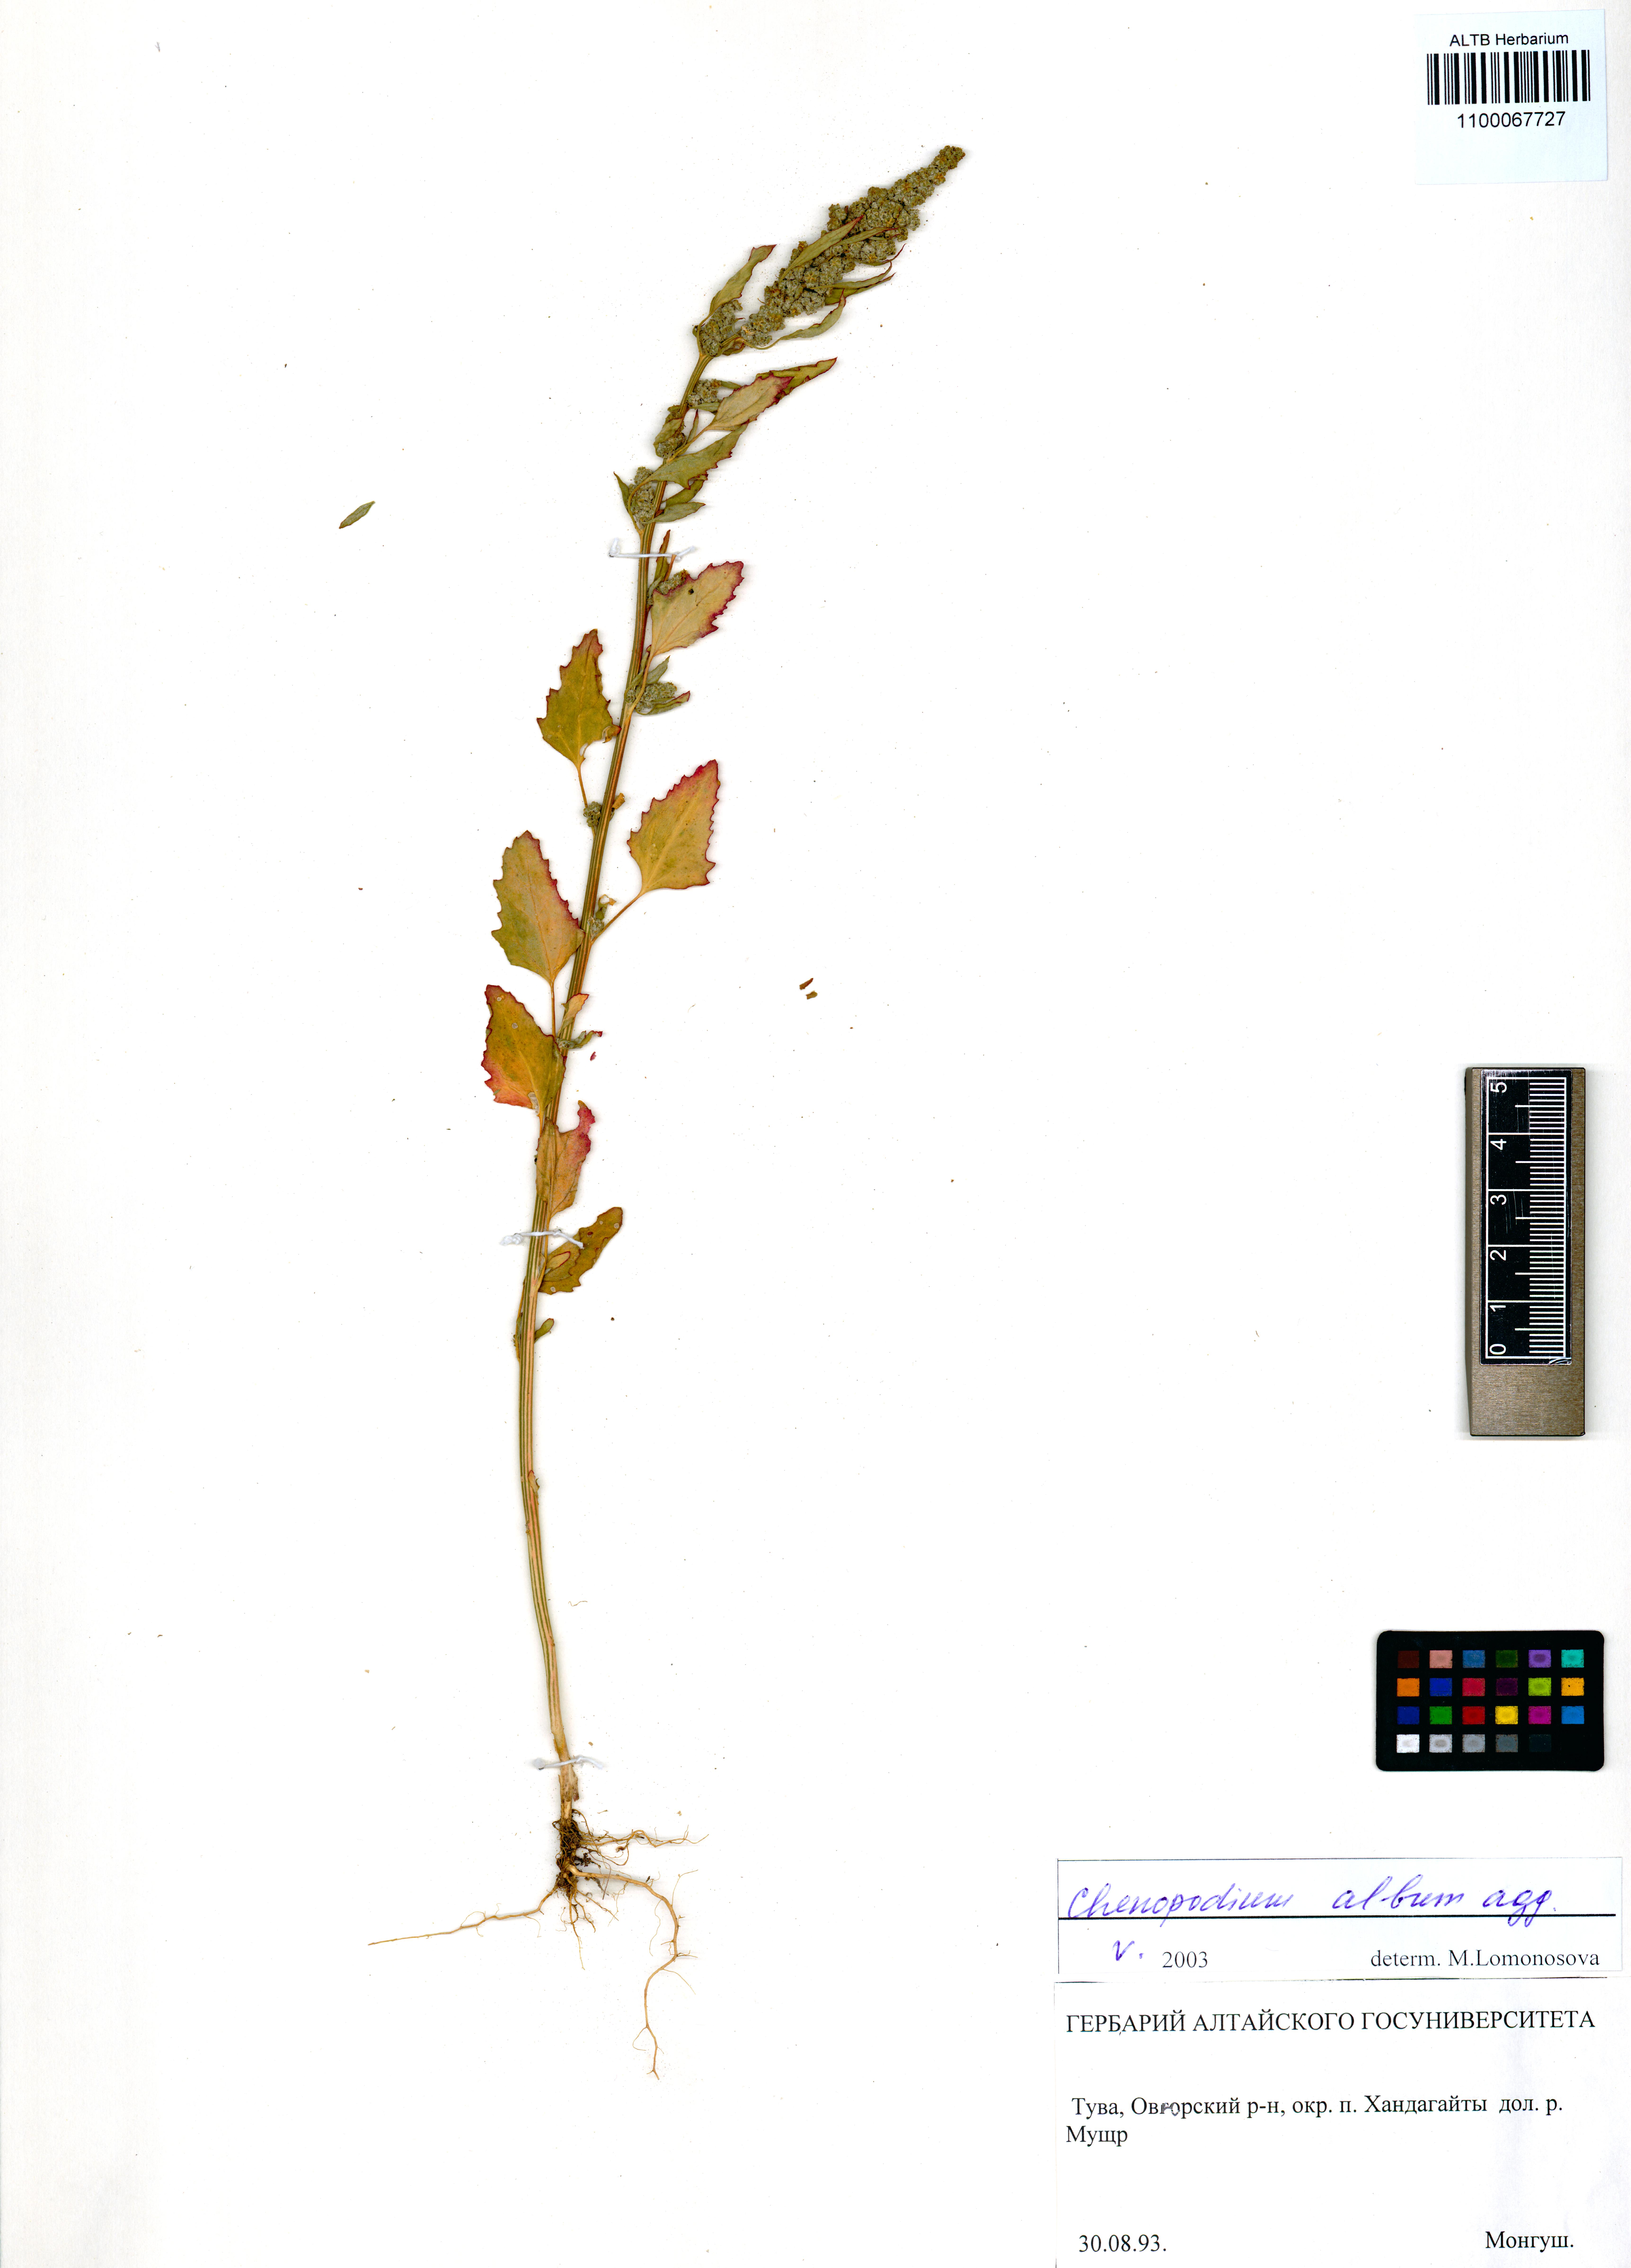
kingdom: Plantae
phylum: Tracheophyta
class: Magnoliopsida
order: Caryophyllales
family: Amaranthaceae
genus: Chenopodium
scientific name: Chenopodium album
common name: Fat-hen
